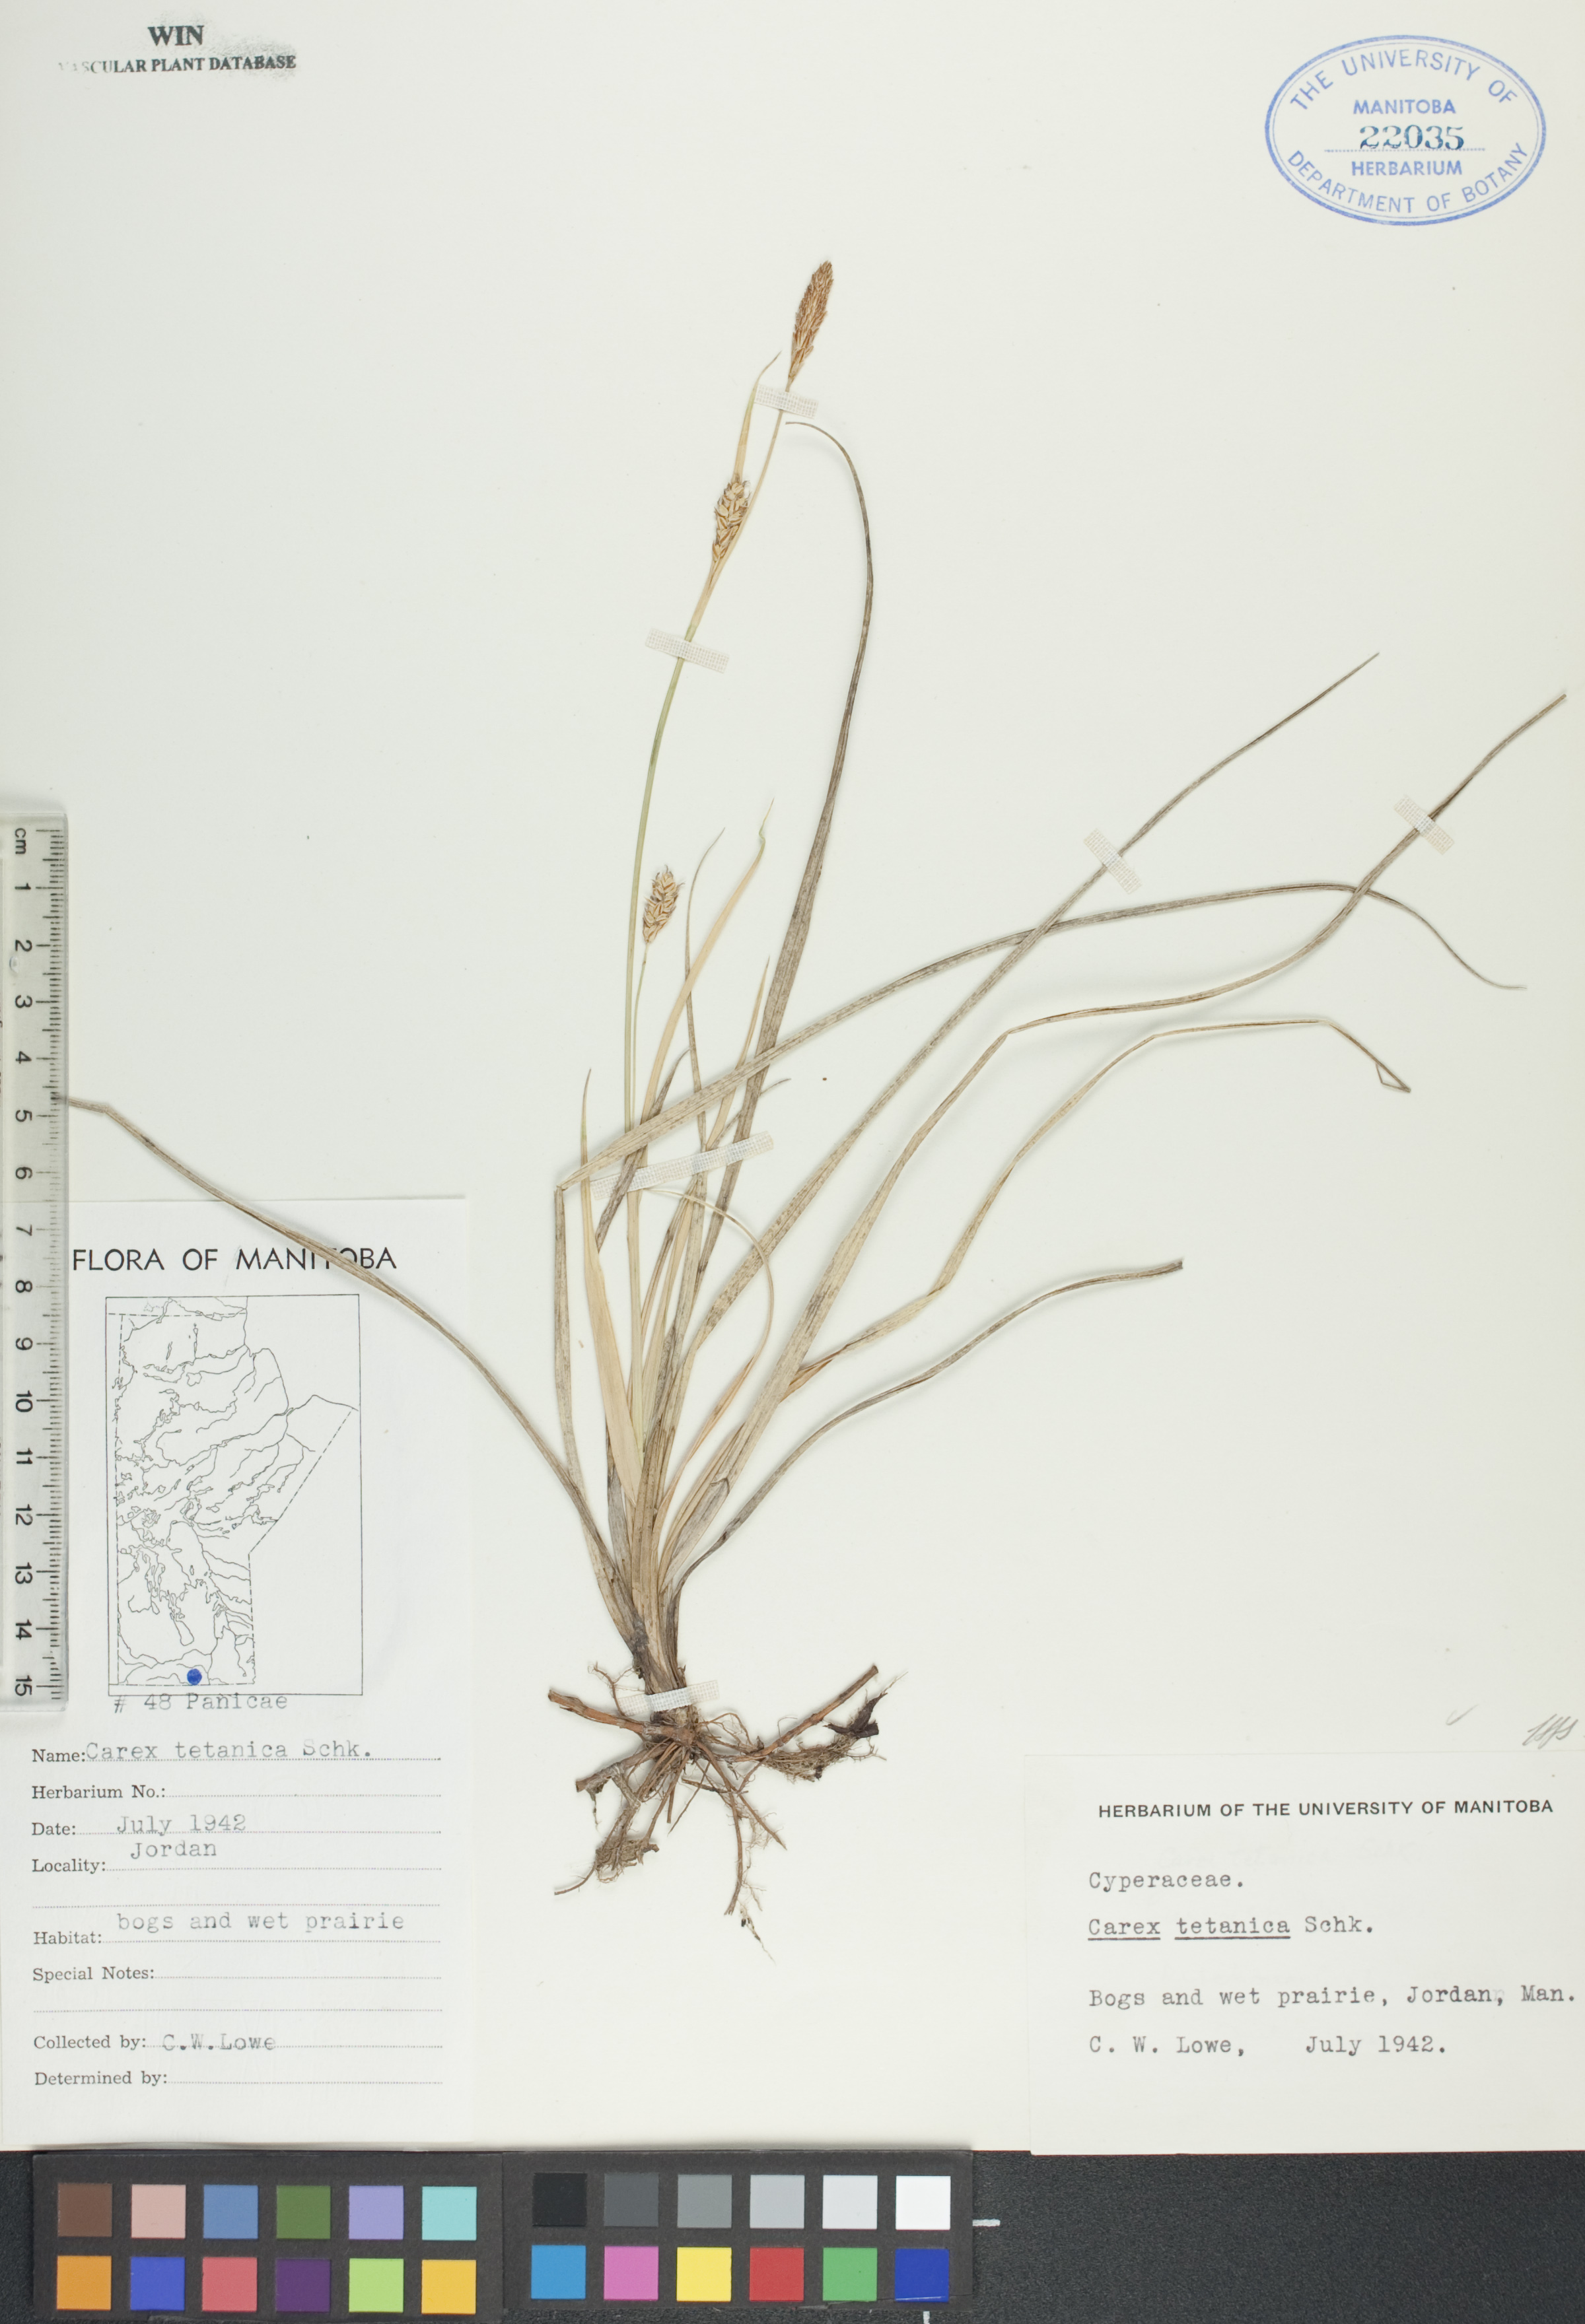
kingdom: Plantae
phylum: Tracheophyta
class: Liliopsida
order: Poales
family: Cyperaceae
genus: Carex
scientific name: Carex tetanica
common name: Rigid sedge
